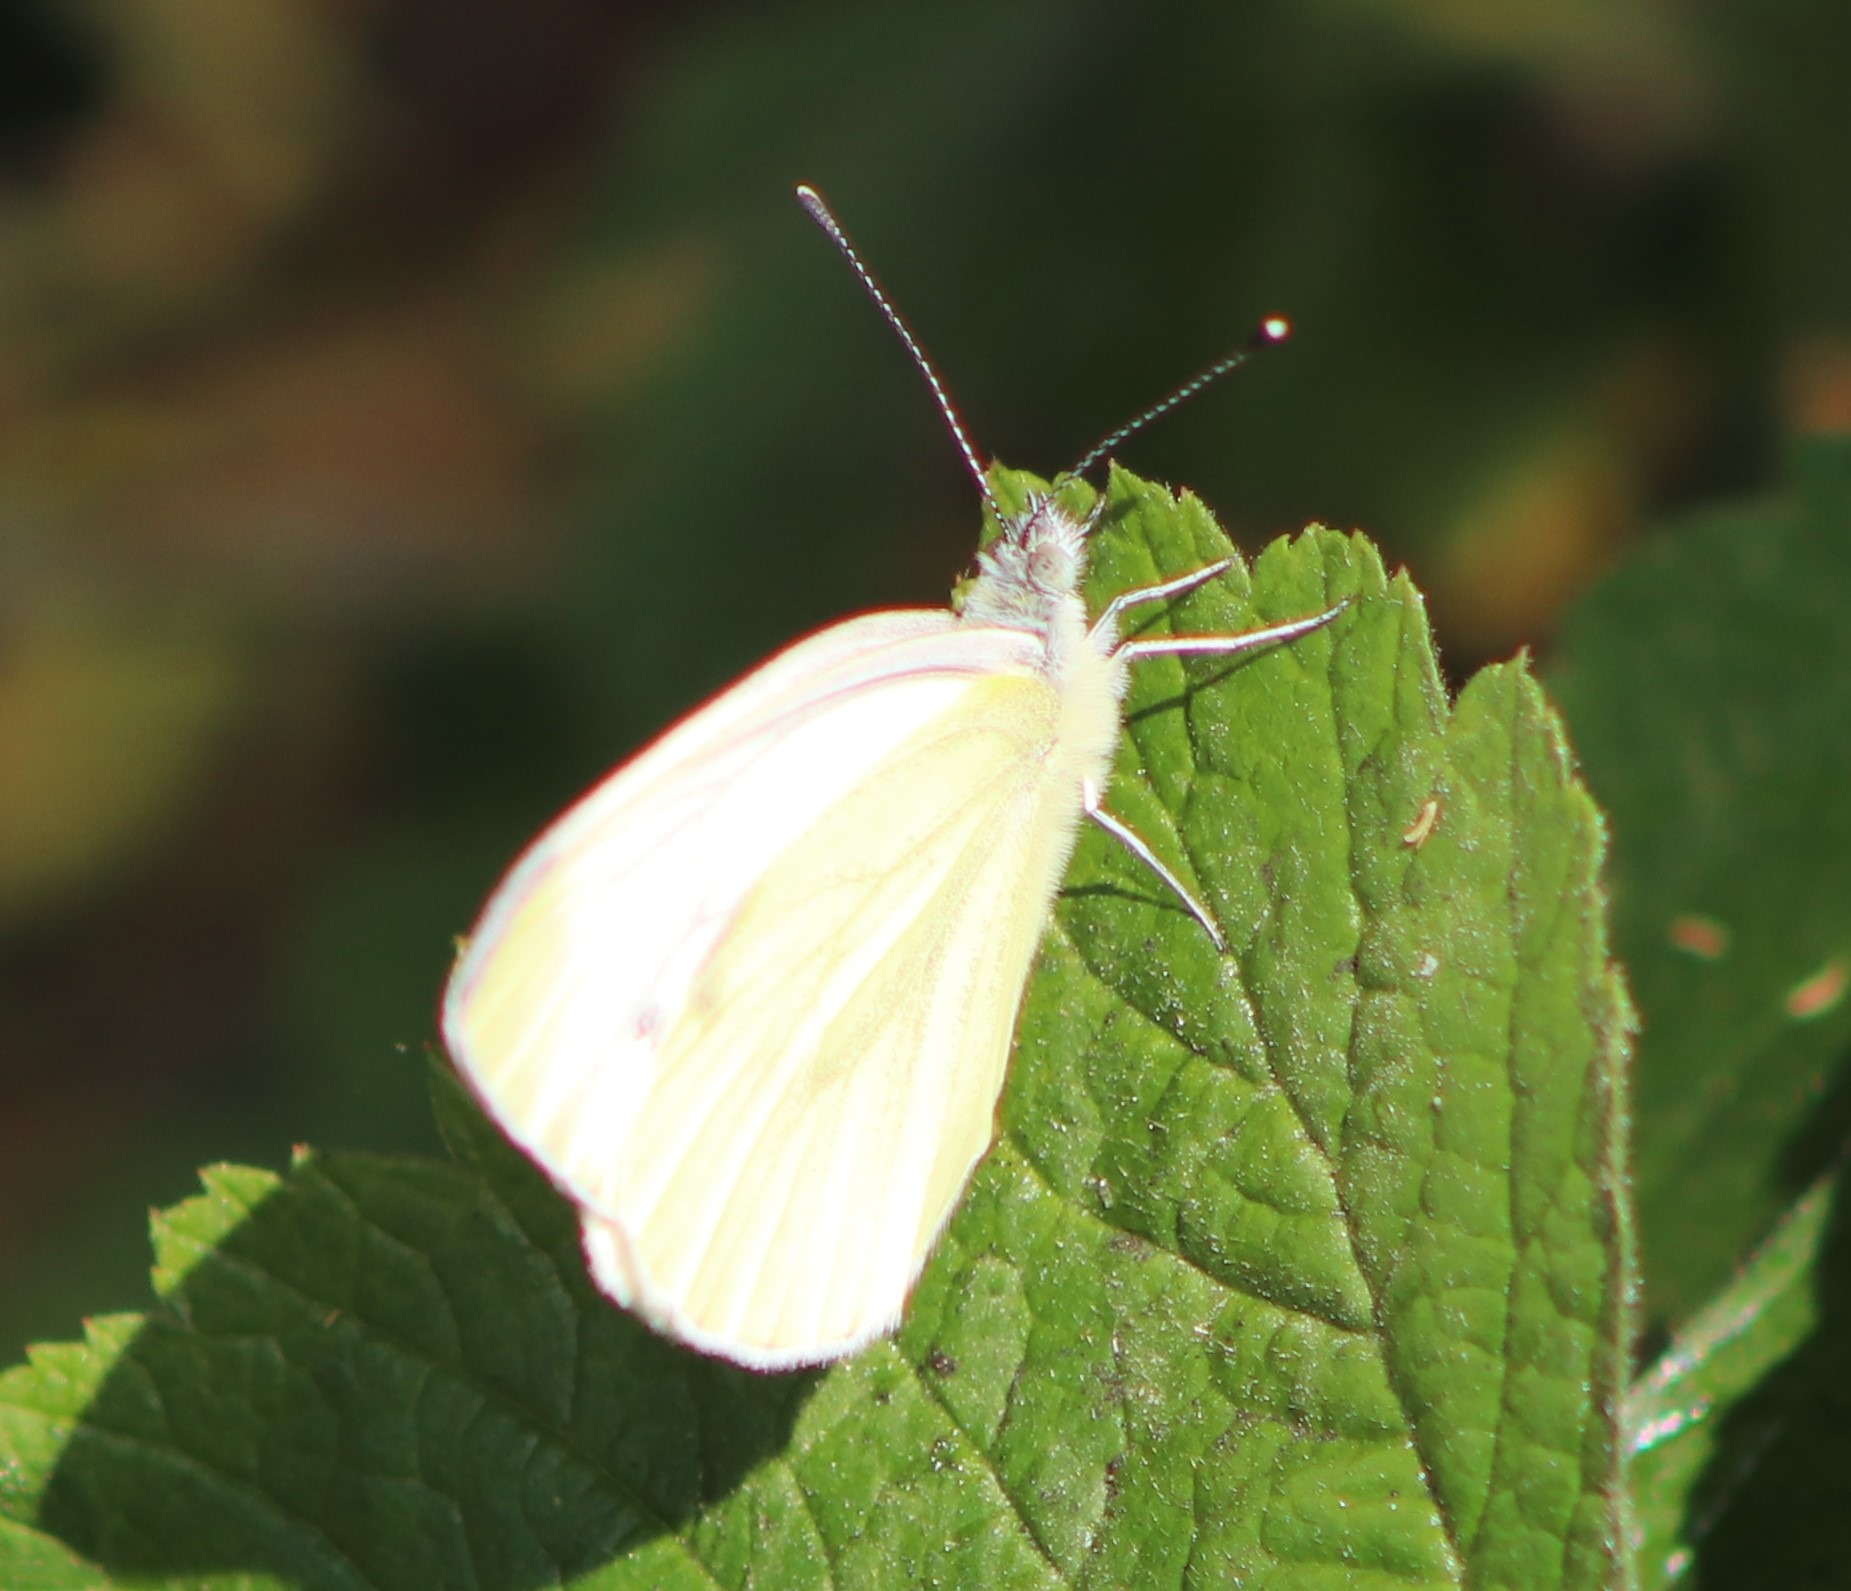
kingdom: Animalia
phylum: Arthropoda
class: Insecta
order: Lepidoptera
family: Pieridae
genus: Pieris
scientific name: Pieris napi
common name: Grønåret kålsommerfugl
